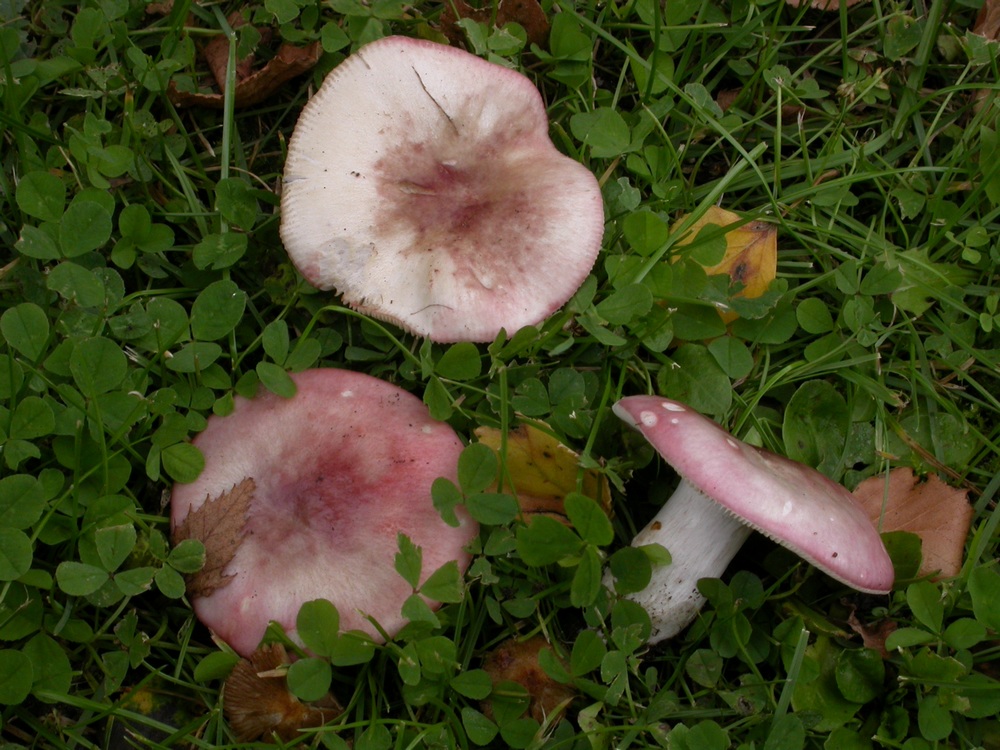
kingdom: Fungi
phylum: Basidiomycota
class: Agaricomycetes
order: Russulales
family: Russulaceae
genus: Russula
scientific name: Russula depallens
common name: falmende skørhat
